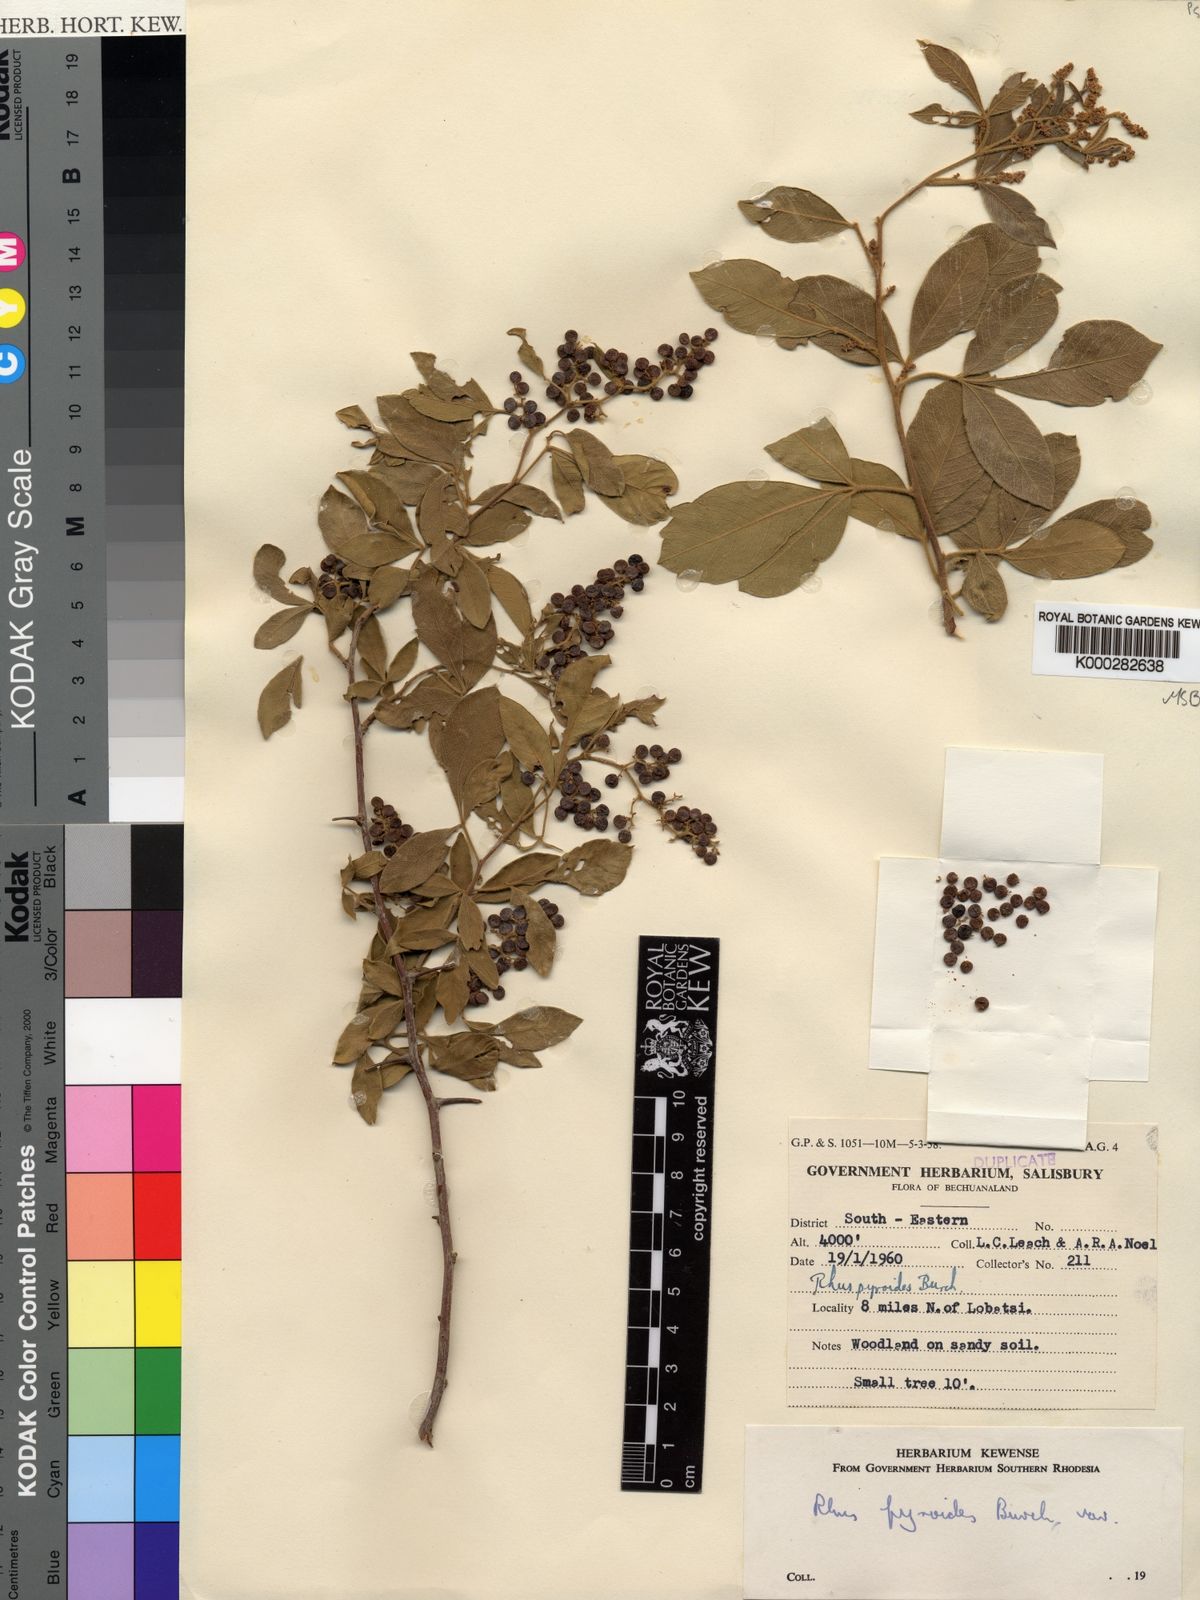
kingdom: Plantae
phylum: Tracheophyta
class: Magnoliopsida
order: Sapindales
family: Anacardiaceae
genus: Searsia
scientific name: Searsia pyroides
